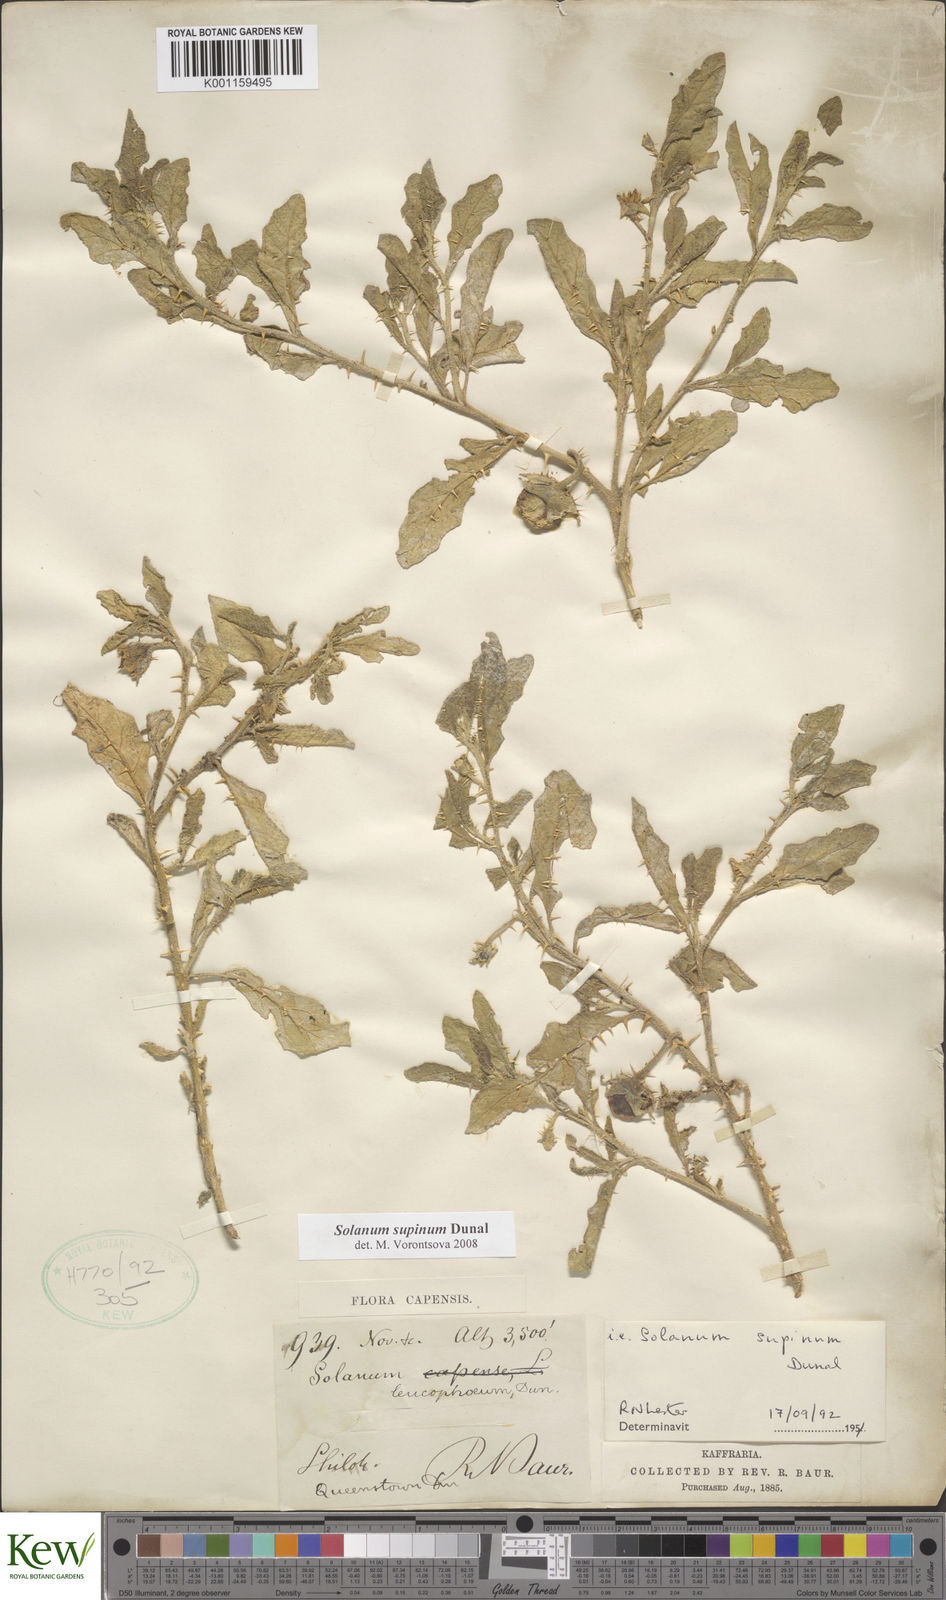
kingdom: Plantae
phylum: Tracheophyta
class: Magnoliopsida
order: Solanales
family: Solanaceae
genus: Solanum
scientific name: Solanum supinum
